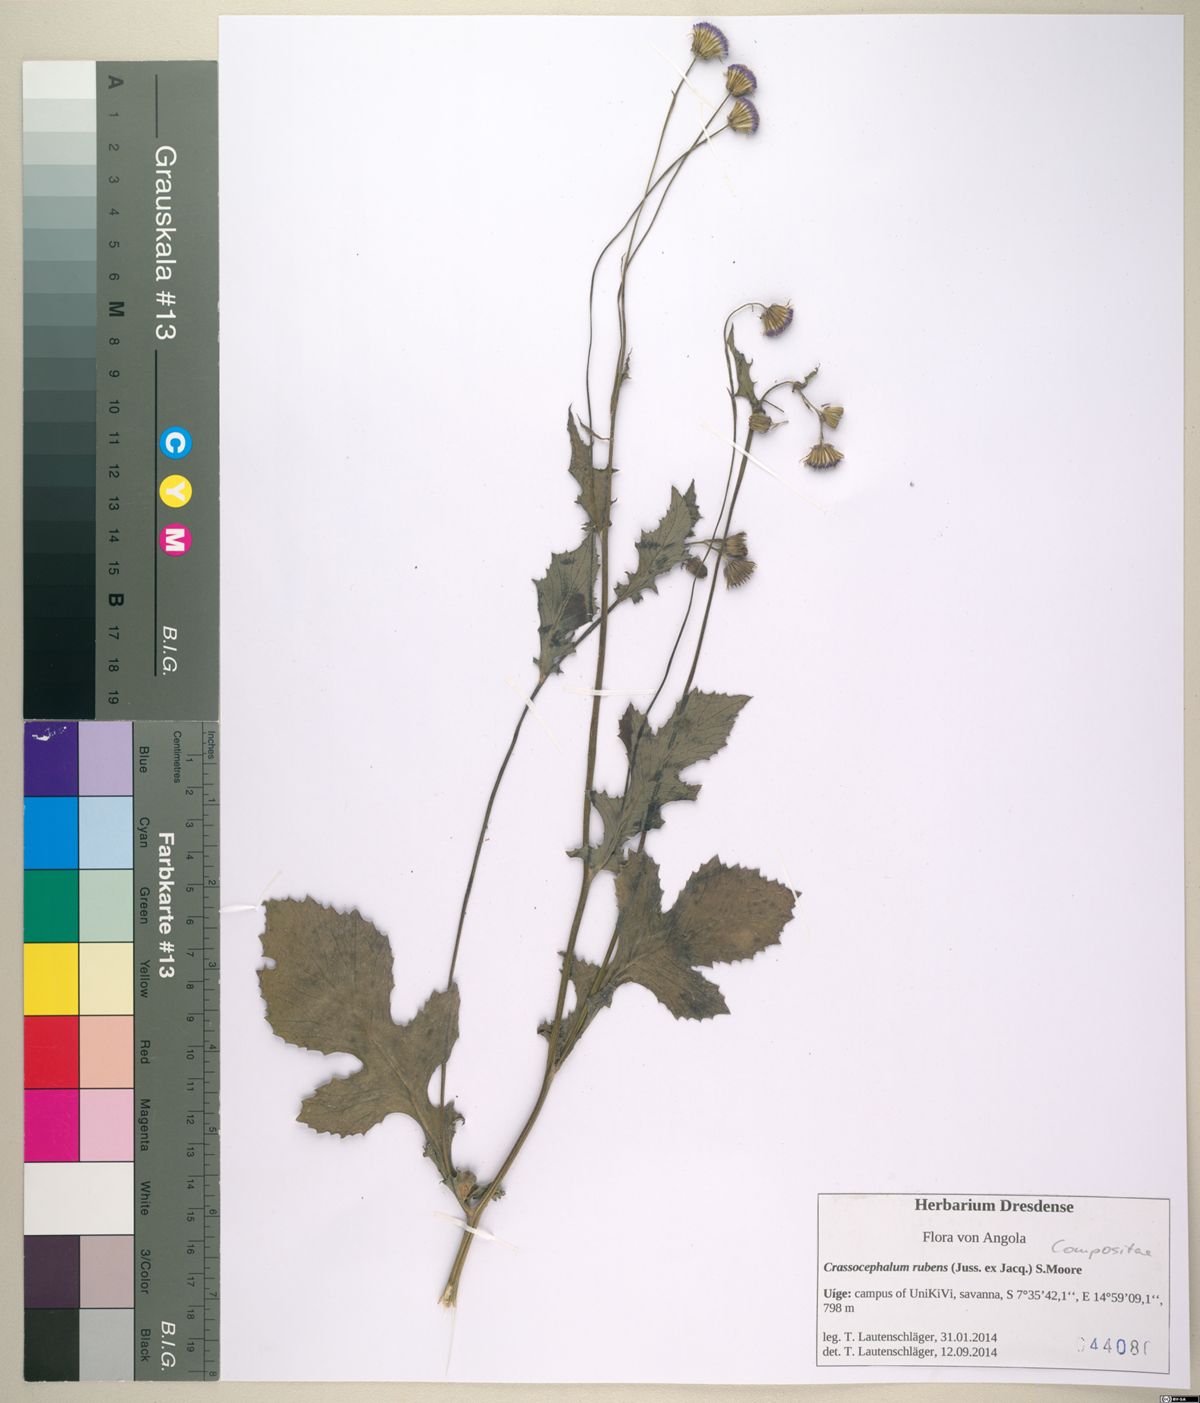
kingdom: Plantae
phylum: Tracheophyta
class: Magnoliopsida
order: Asterales
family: Asteraceae
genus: Crassocephalum
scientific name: Crassocephalum rubens
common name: Yoruban bologi
